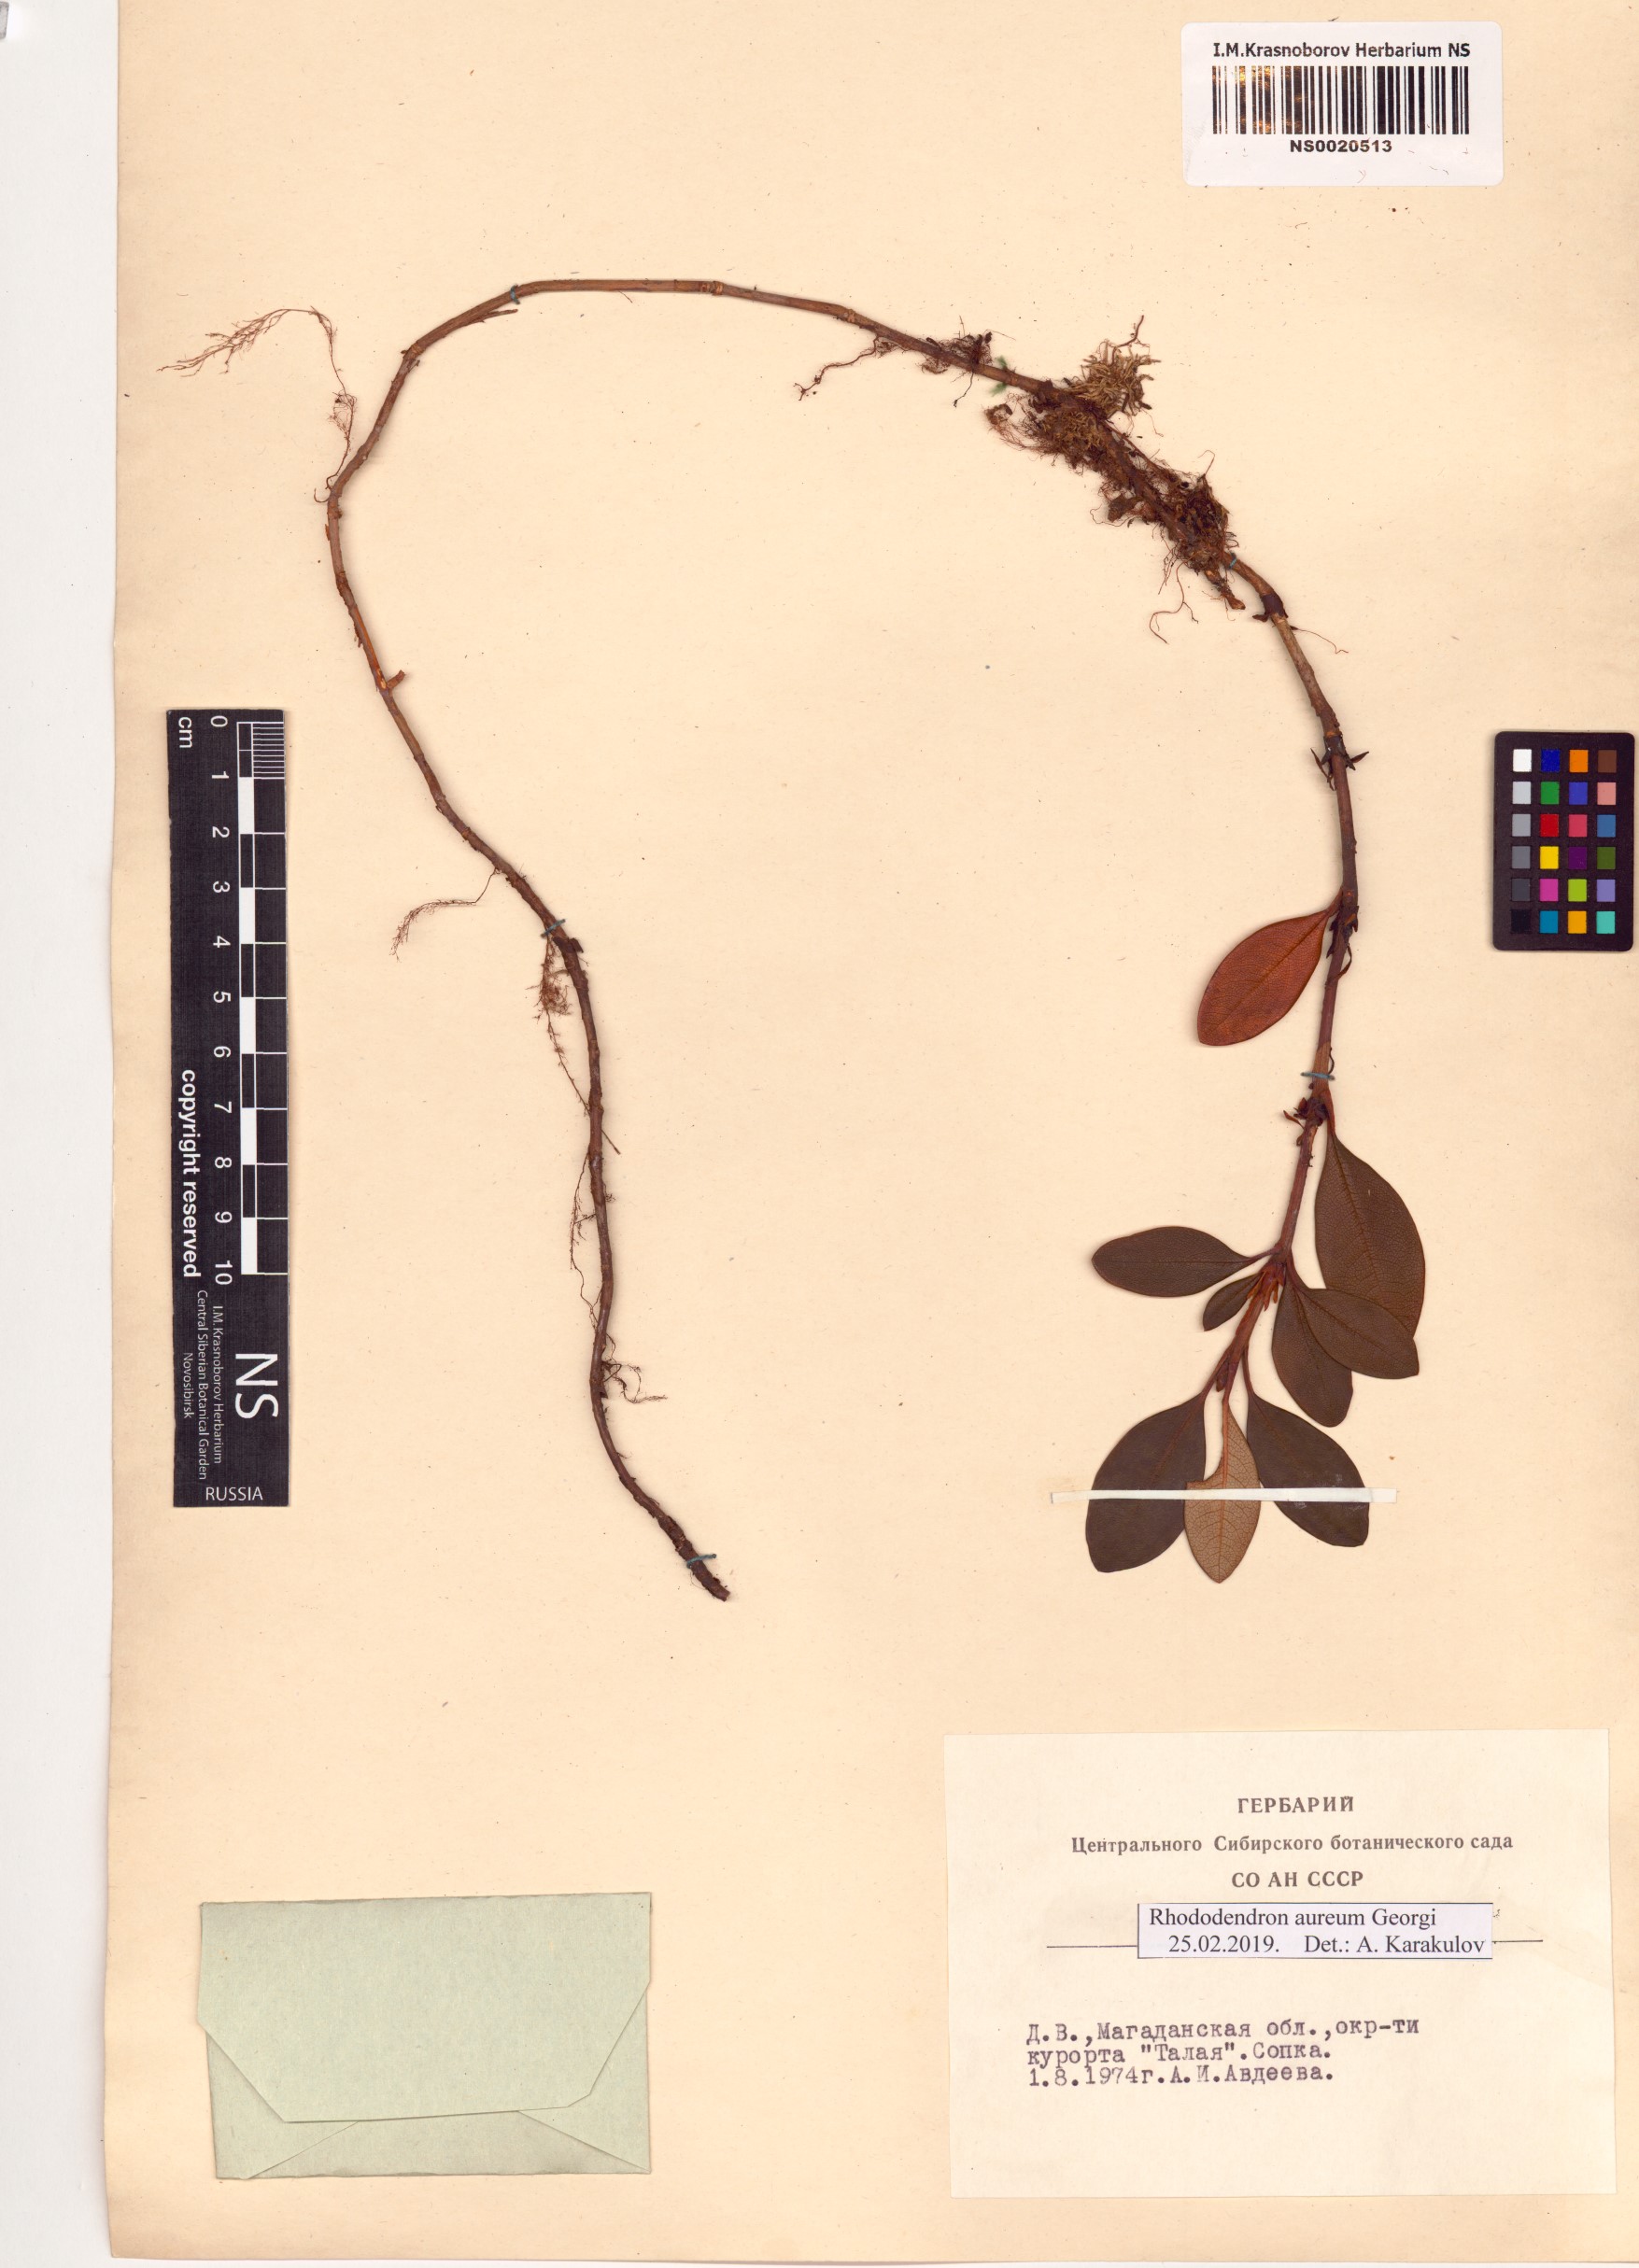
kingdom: Plantae
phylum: Tracheophyta
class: Magnoliopsida
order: Ericales
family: Ericaceae
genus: Rhododendron
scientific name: Rhododendron aureum
